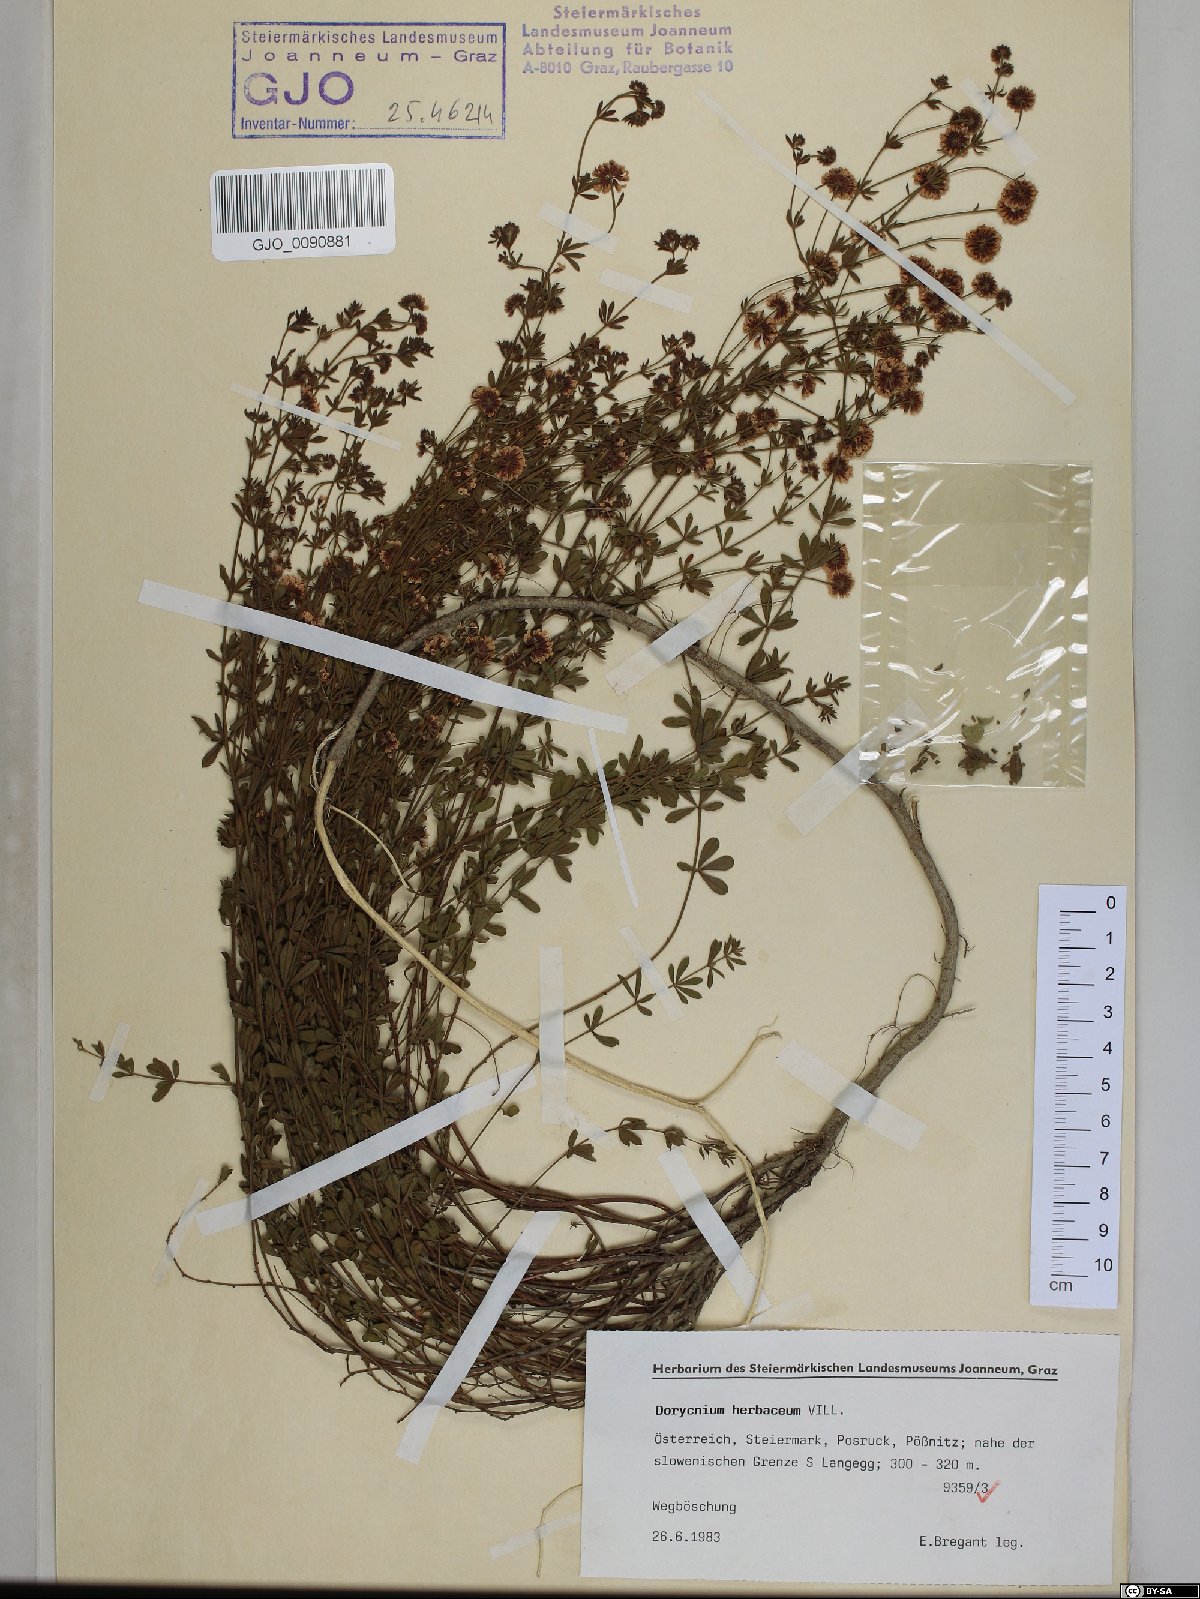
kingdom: Plantae
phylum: Tracheophyta
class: Magnoliopsida
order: Fabales
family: Fabaceae
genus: Lotus
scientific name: Lotus herbaceus
